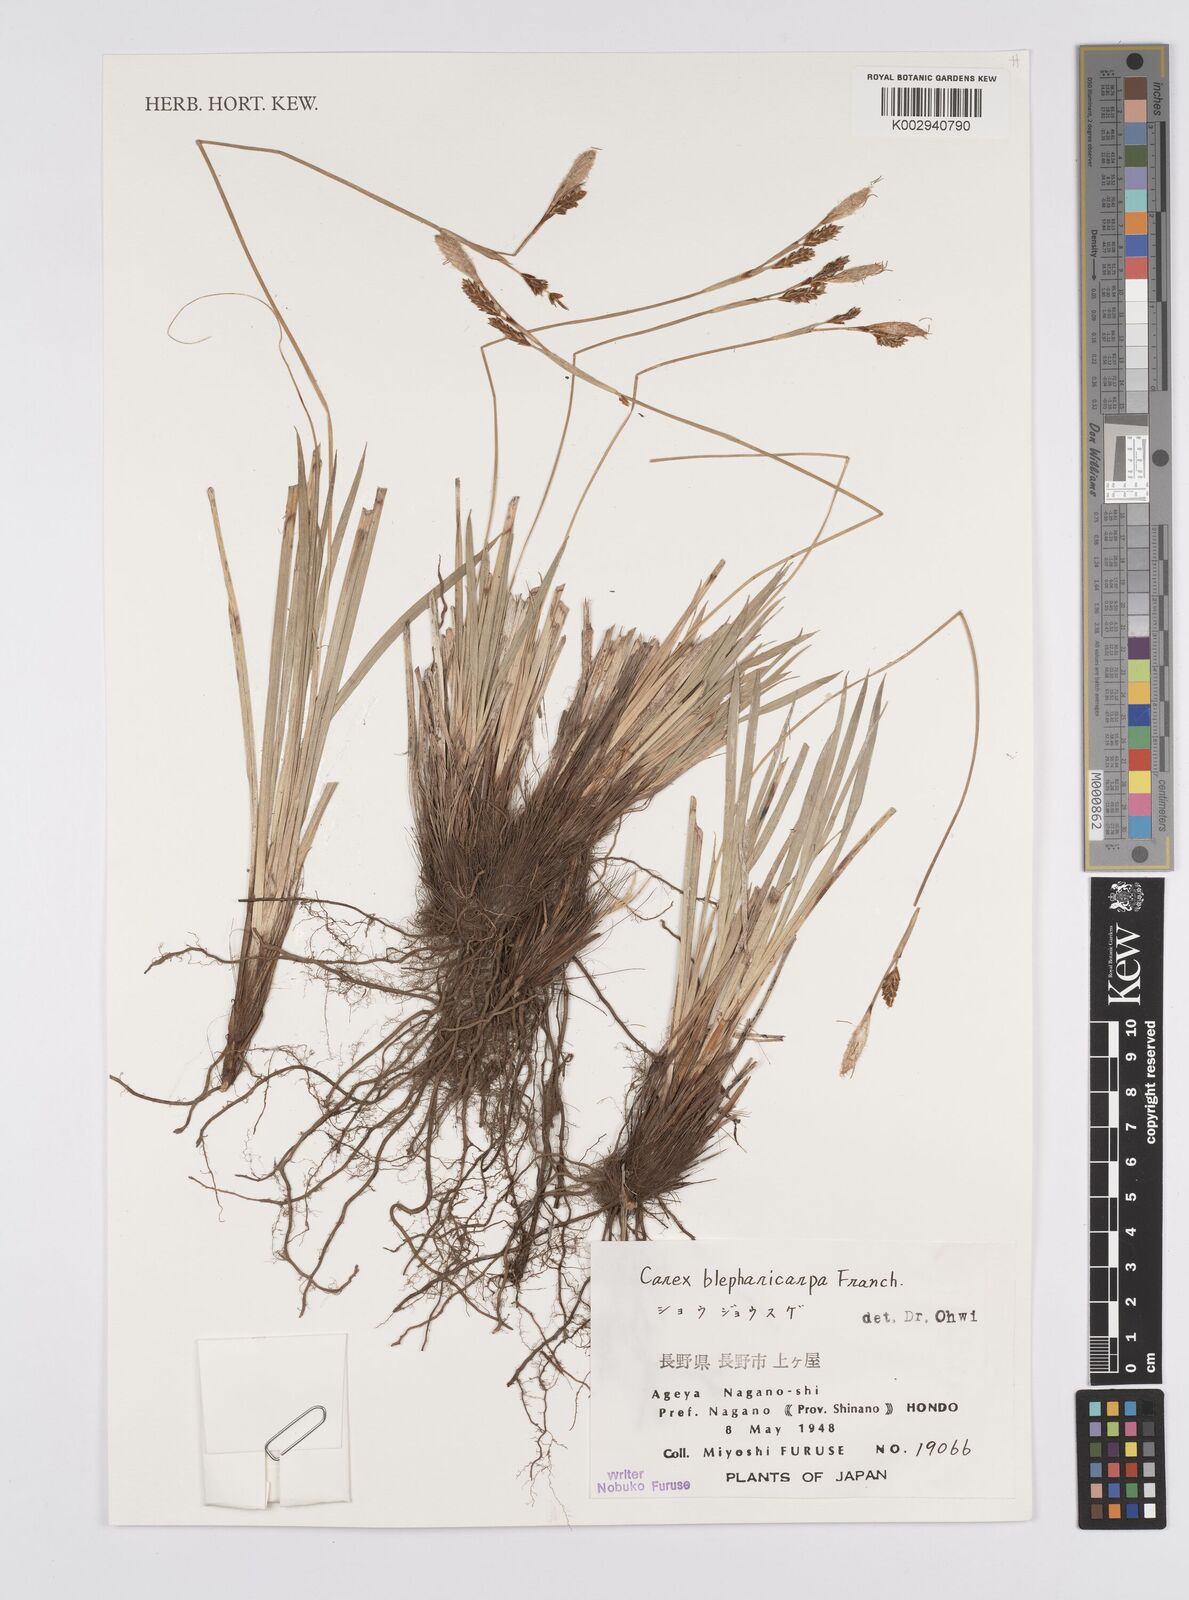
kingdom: Plantae
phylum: Tracheophyta
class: Liliopsida
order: Poales
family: Cyperaceae
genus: Carex
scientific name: Carex blepharicarpa
